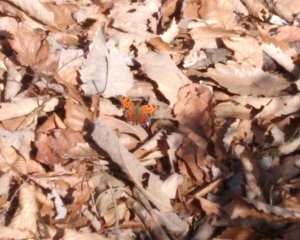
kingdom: Animalia
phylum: Arthropoda
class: Insecta
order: Lepidoptera
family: Nymphalidae
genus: Polygonia
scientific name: Polygonia comma
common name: Eastern Comma
